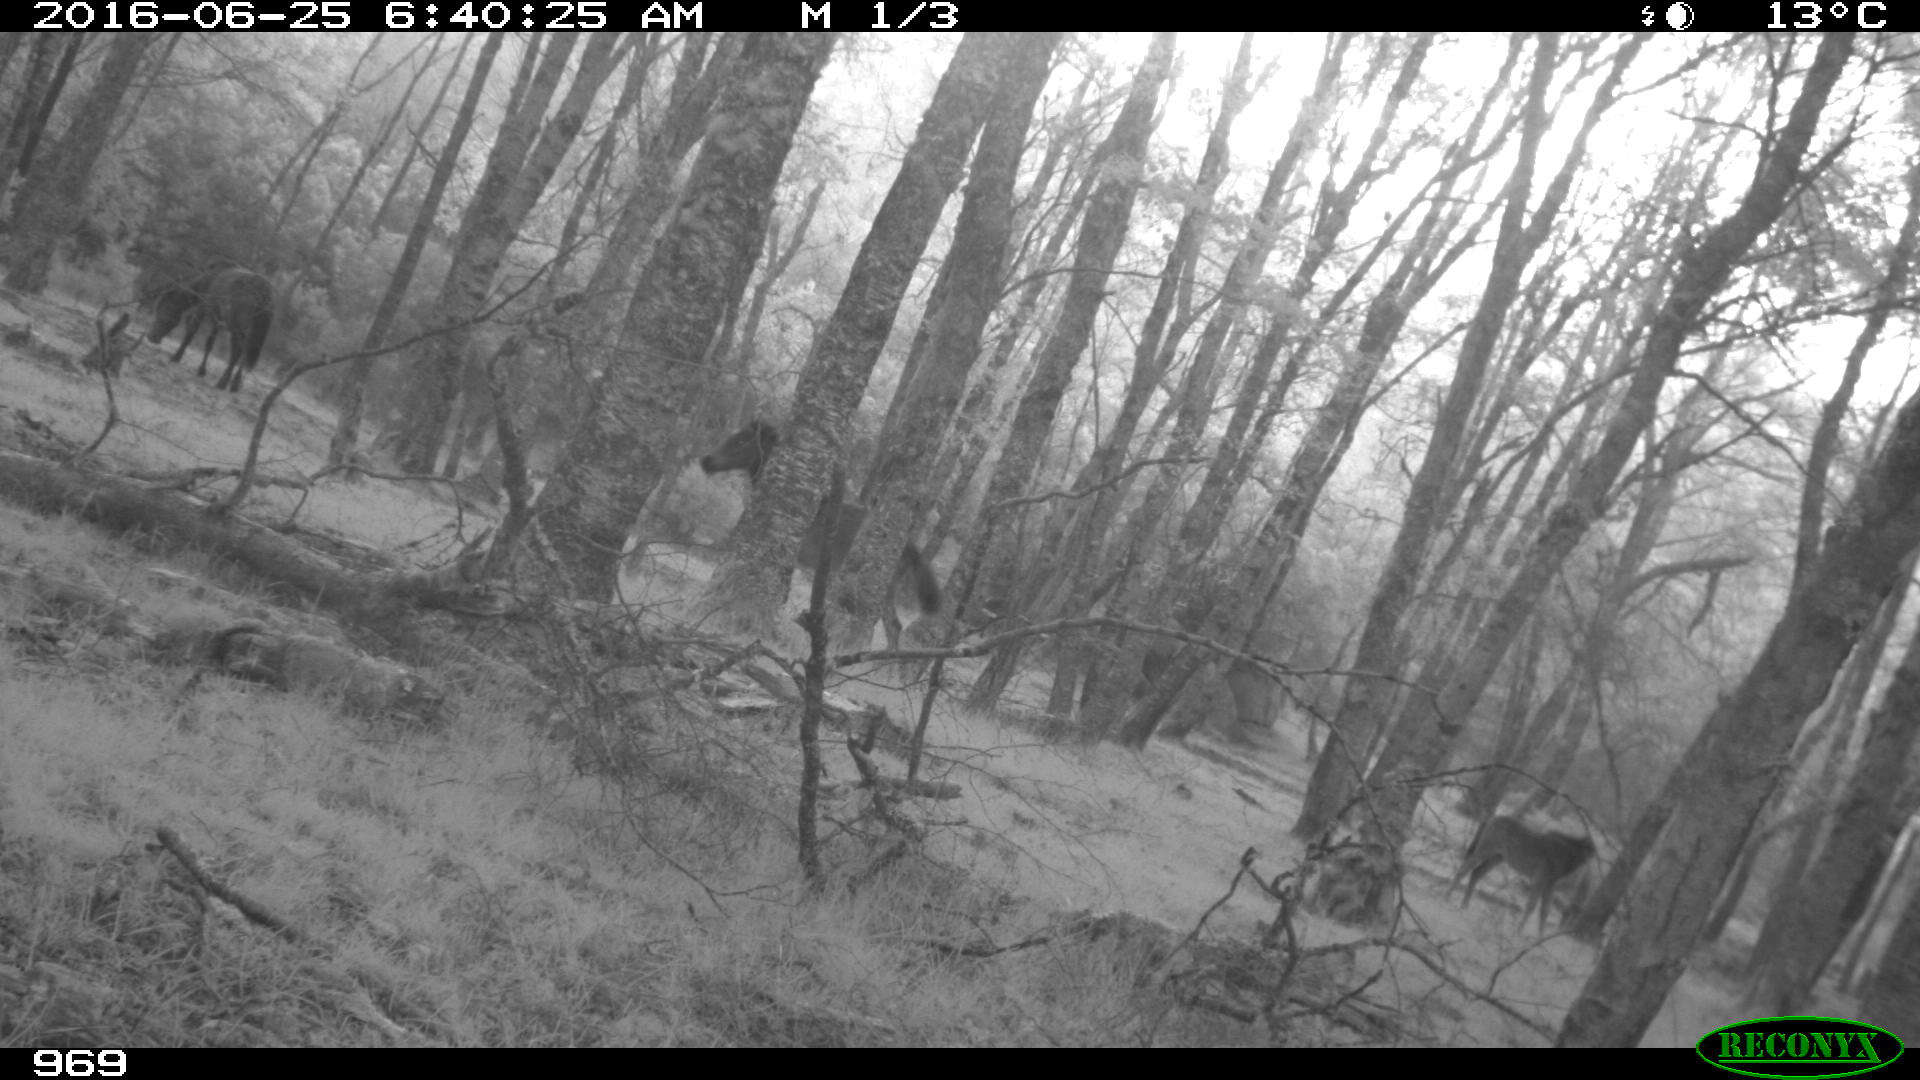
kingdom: Animalia
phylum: Chordata
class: Mammalia
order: Perissodactyla
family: Equidae
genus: Equus
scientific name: Equus caballus
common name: Horse
